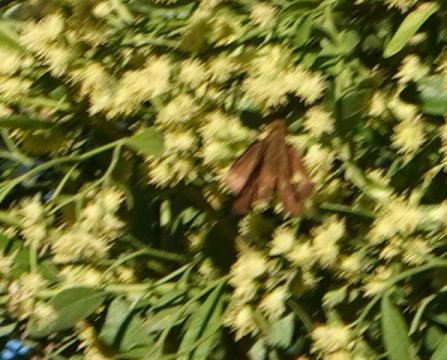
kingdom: Animalia
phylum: Arthropoda
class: Insecta
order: Lepidoptera
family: Hesperiidae
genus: Panoquina
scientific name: Panoquina ocola
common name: Ocola Skipper
